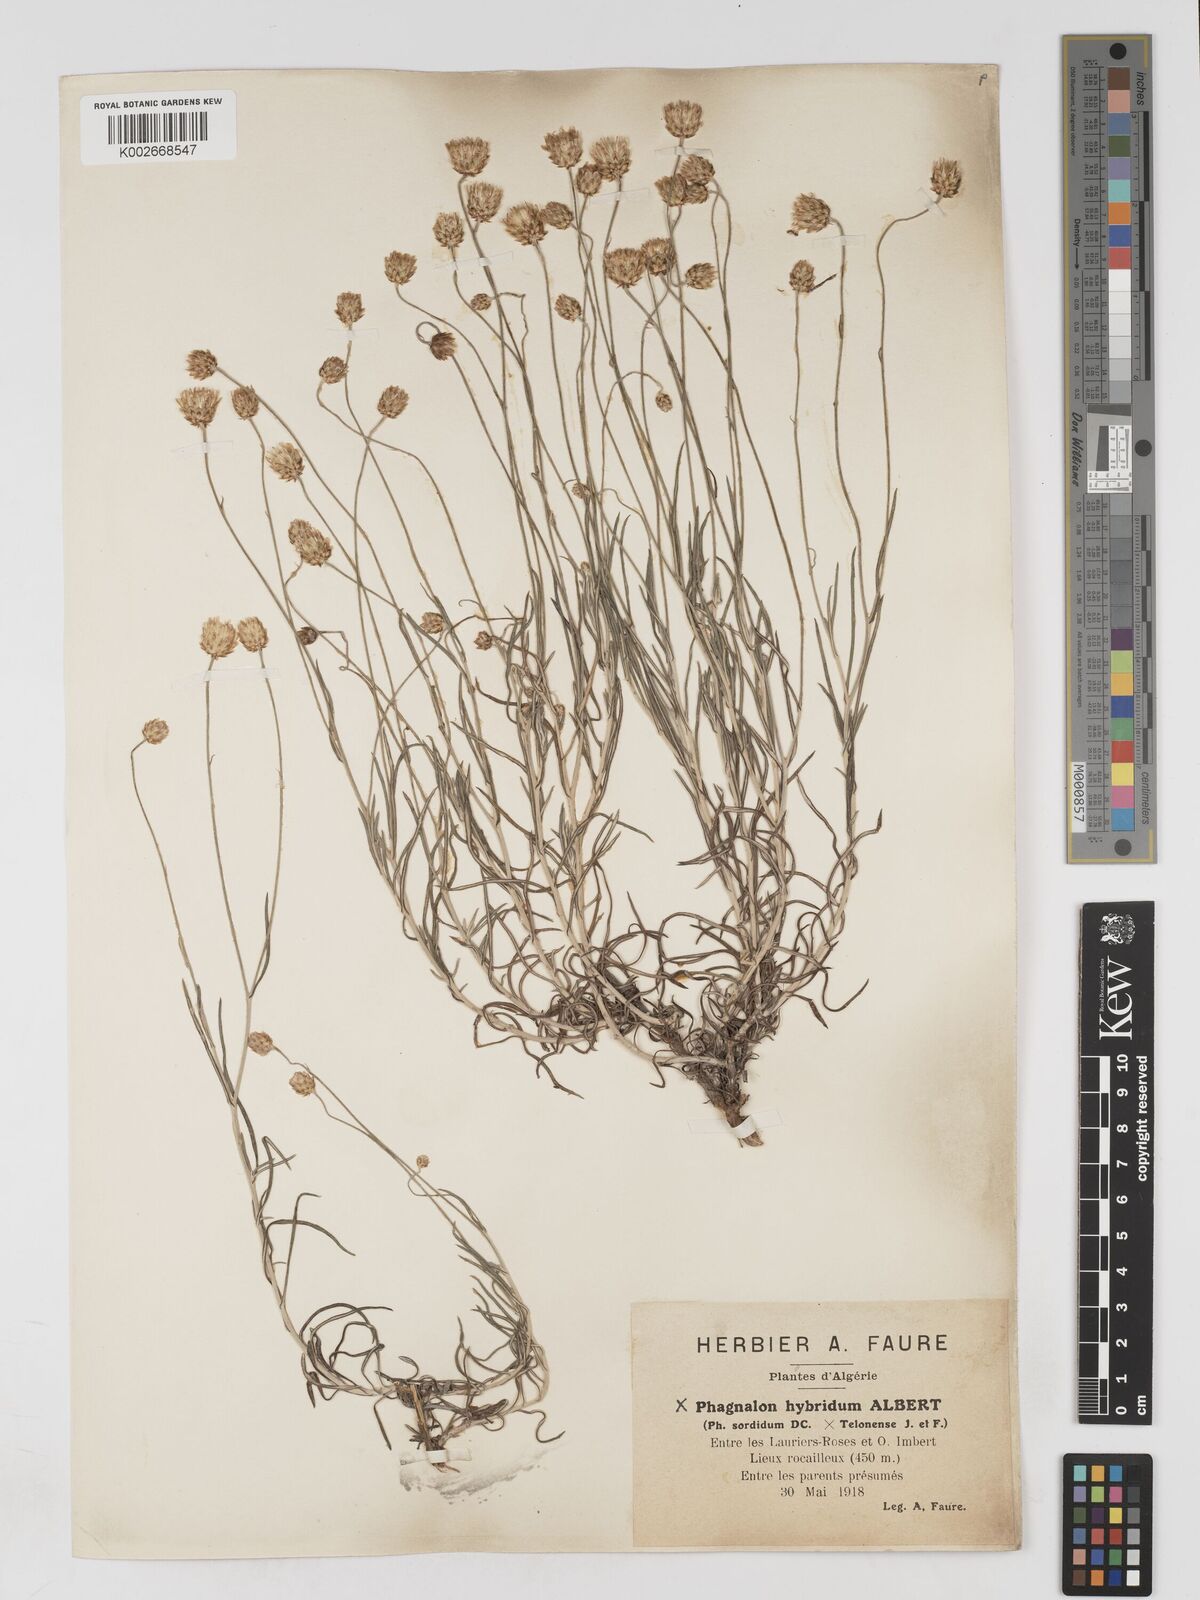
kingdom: Plantae
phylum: Tracheophyta
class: Magnoliopsida
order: Asterales
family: Asteraceae
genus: Phagnalon
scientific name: Phagnalon hybridum
